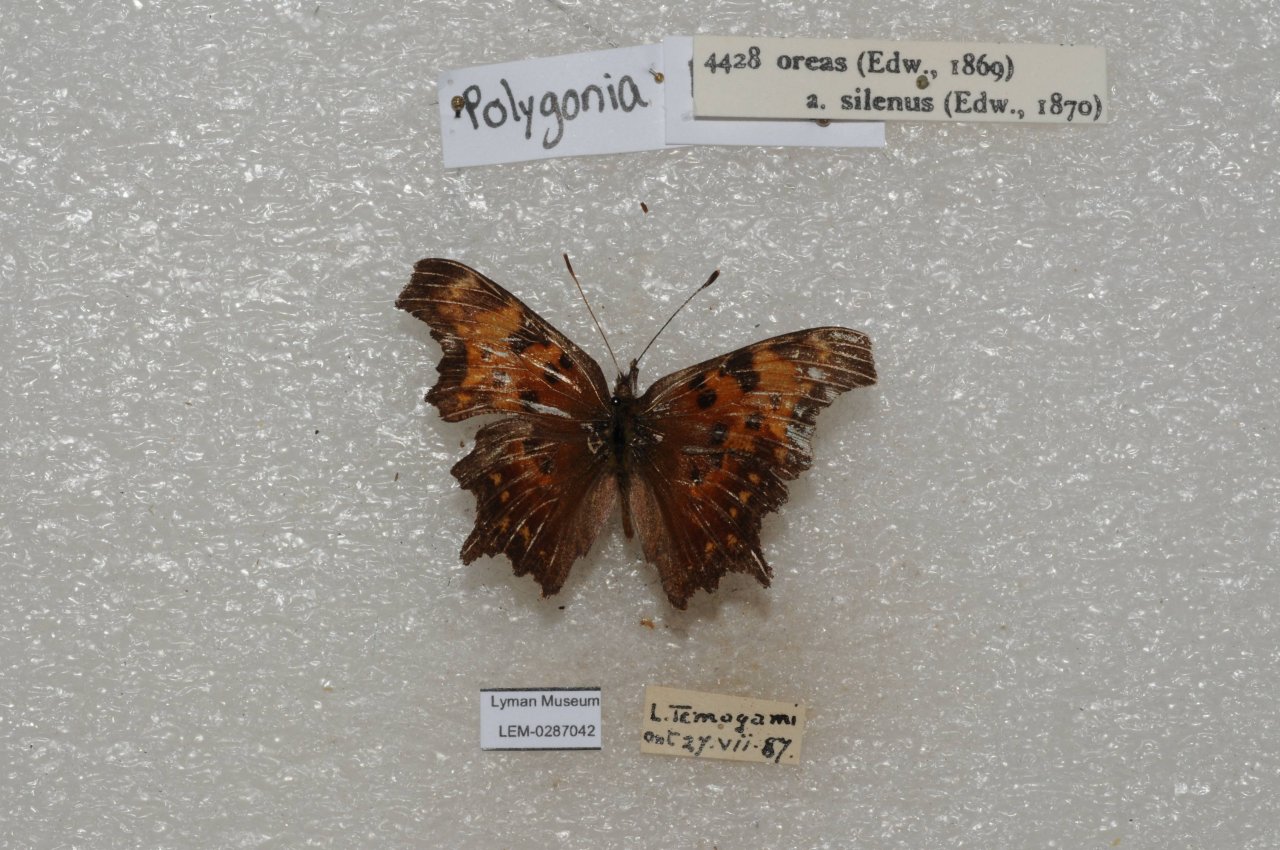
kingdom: Animalia
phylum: Arthropoda
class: Insecta
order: Lepidoptera
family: Nymphalidae
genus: Polygonia
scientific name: Polygonia progne
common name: Gray Comma
